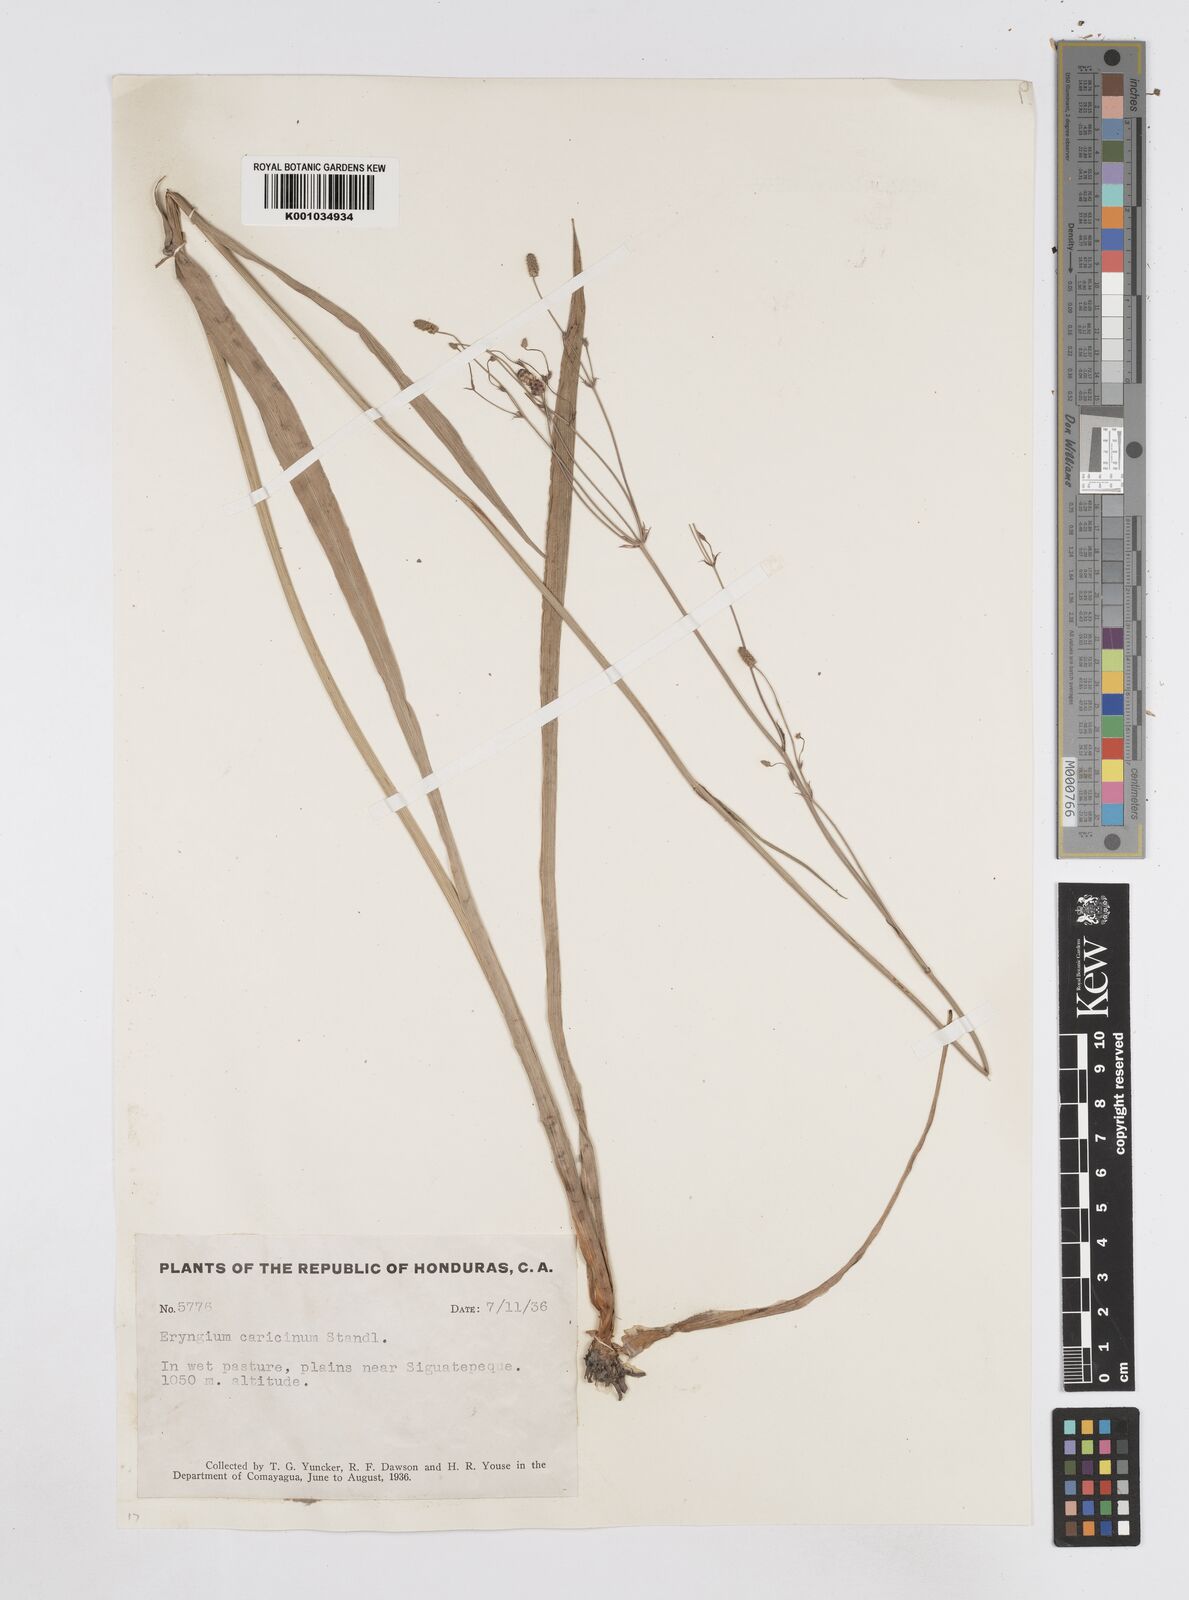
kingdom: Plantae
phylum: Tracheophyta
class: Magnoliopsida
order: Apiales
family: Apiaceae
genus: Eryngium
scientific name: Eryngium ebracteatum
